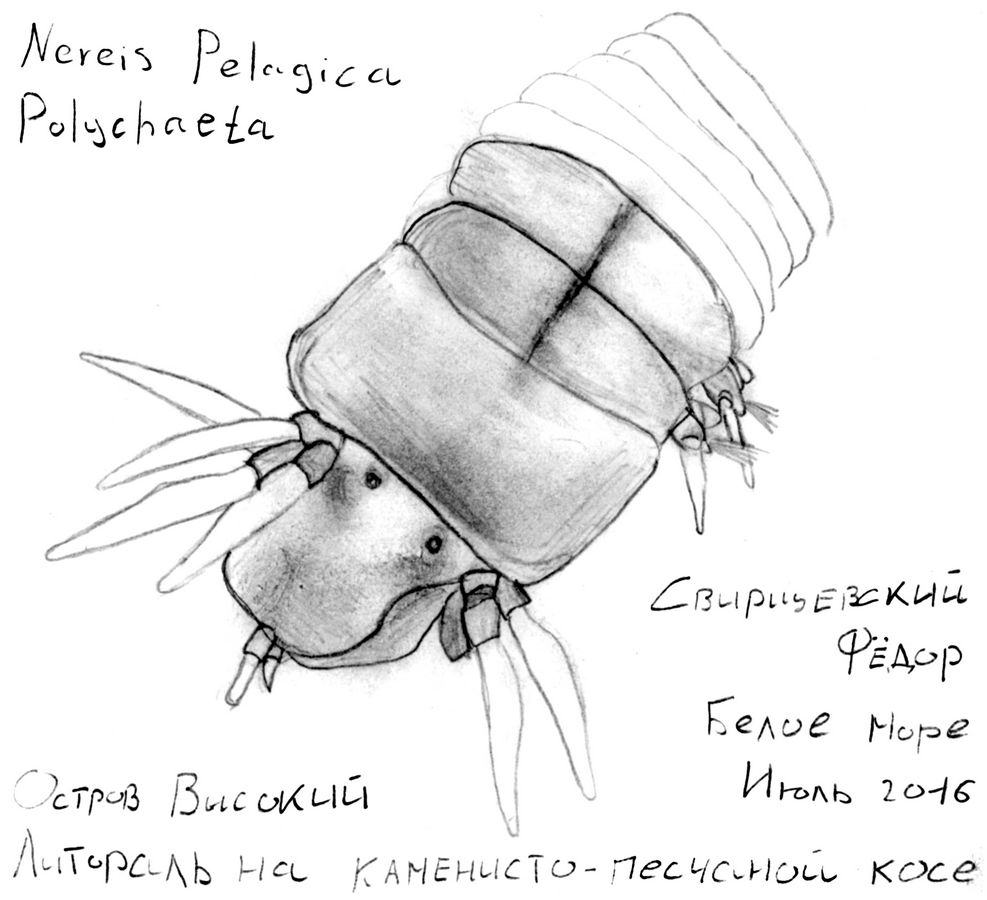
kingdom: Animalia
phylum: Annelida
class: Polychaeta
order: Phyllodocida
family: Nereididae
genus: Nereis
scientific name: Nereis pelagica
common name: Pelagic clam worm
